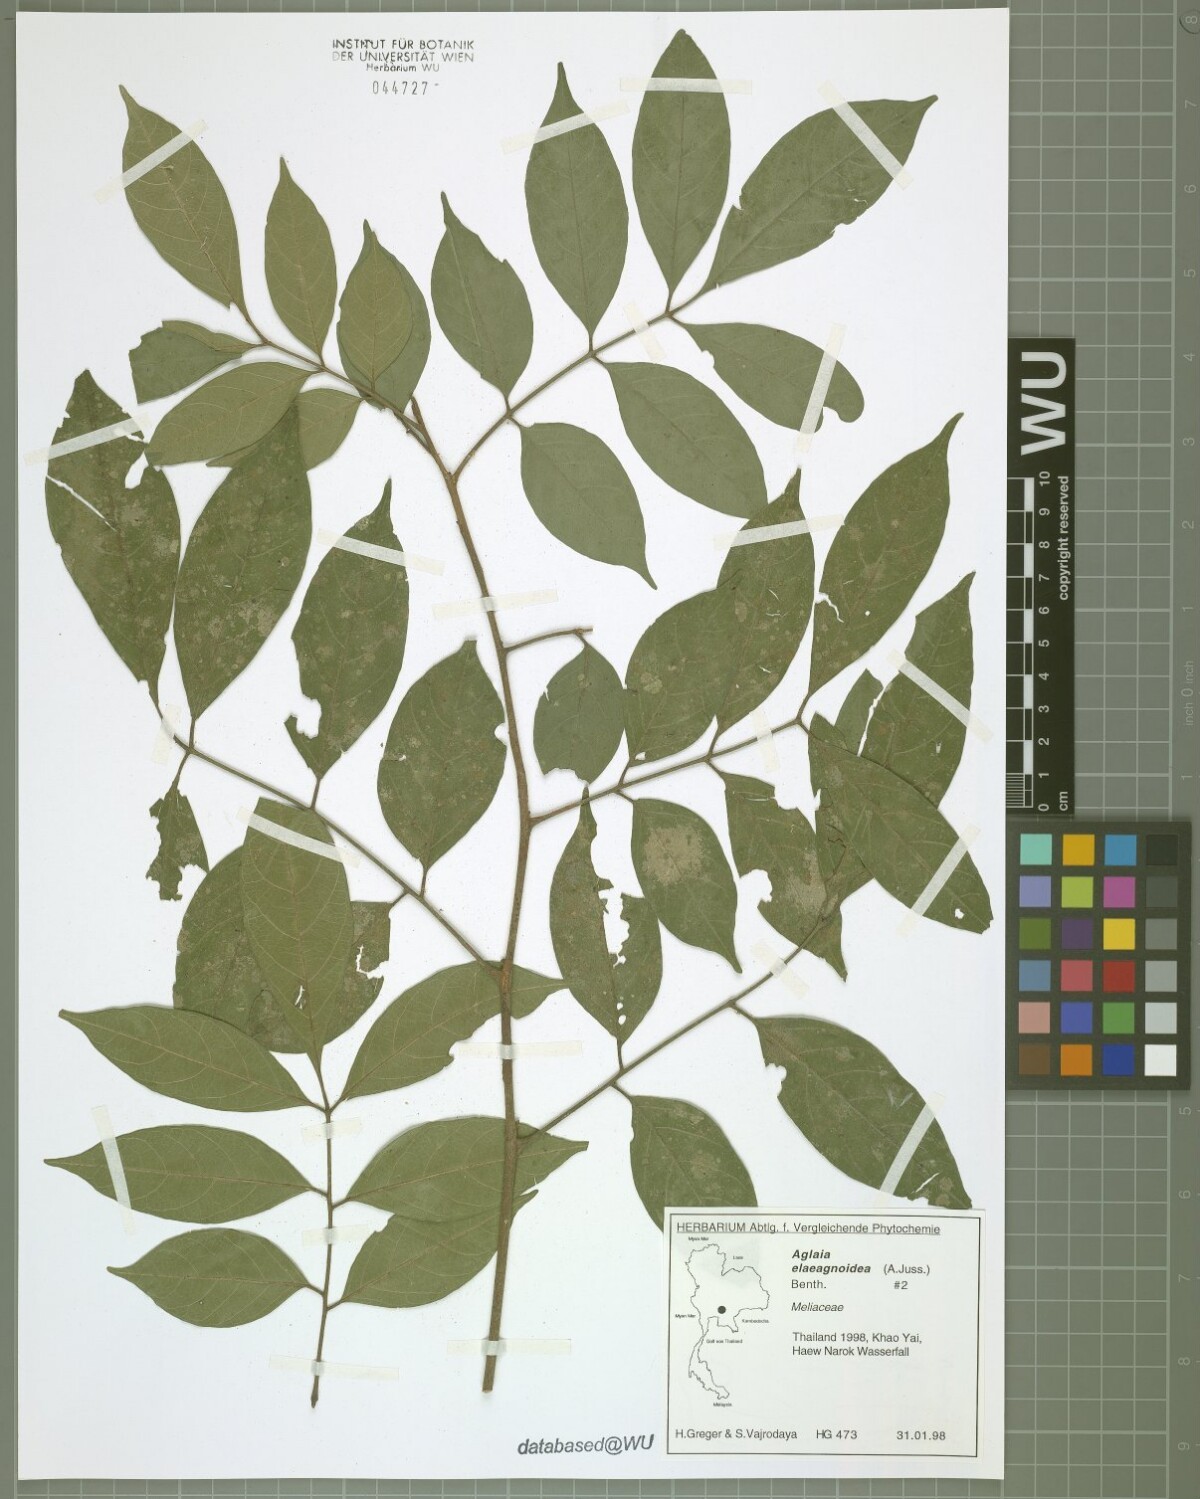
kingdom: Plantae
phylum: Tracheophyta
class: Magnoliopsida
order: Sapindales
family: Meliaceae
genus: Aglaia
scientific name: Aglaia elaeagnoidea
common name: Droopyleaf
